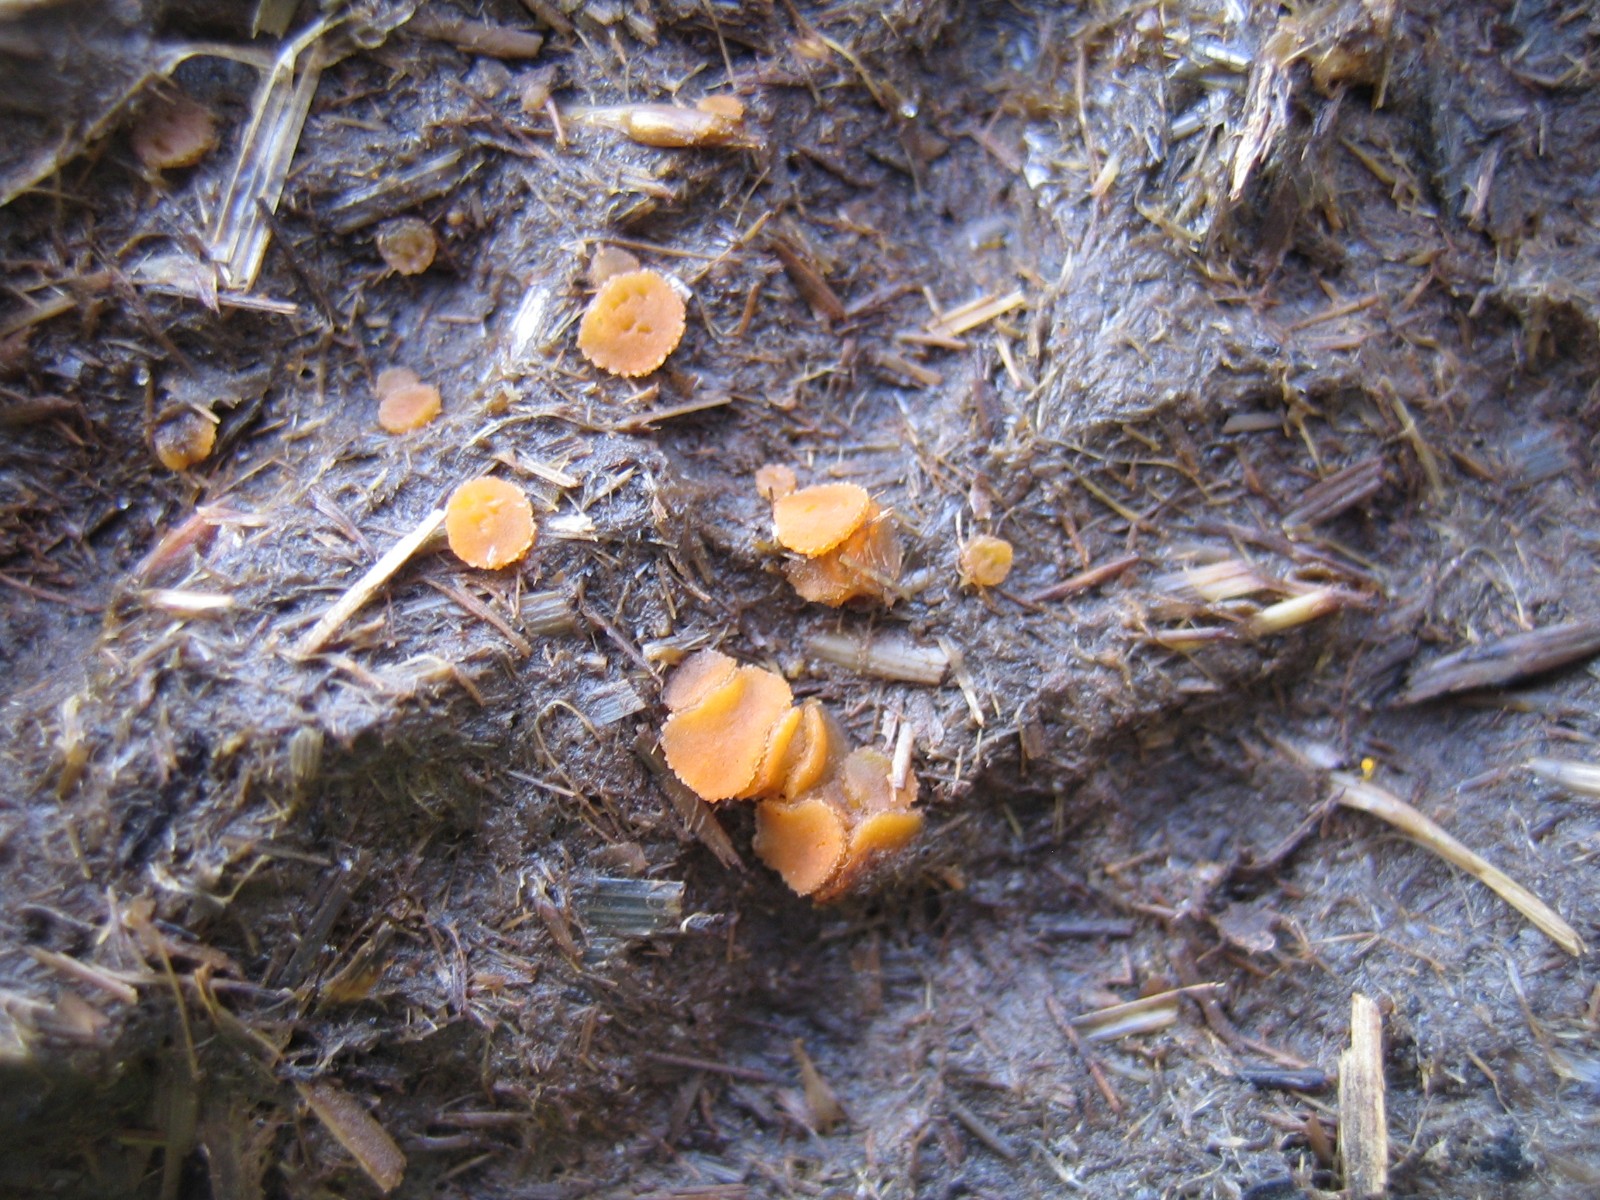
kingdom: Fungi
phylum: Ascomycota
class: Pezizomycetes
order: Pezizales
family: Pyronemataceae
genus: Cheilymenia
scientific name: Cheilymenia granulata
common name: møgbæger
